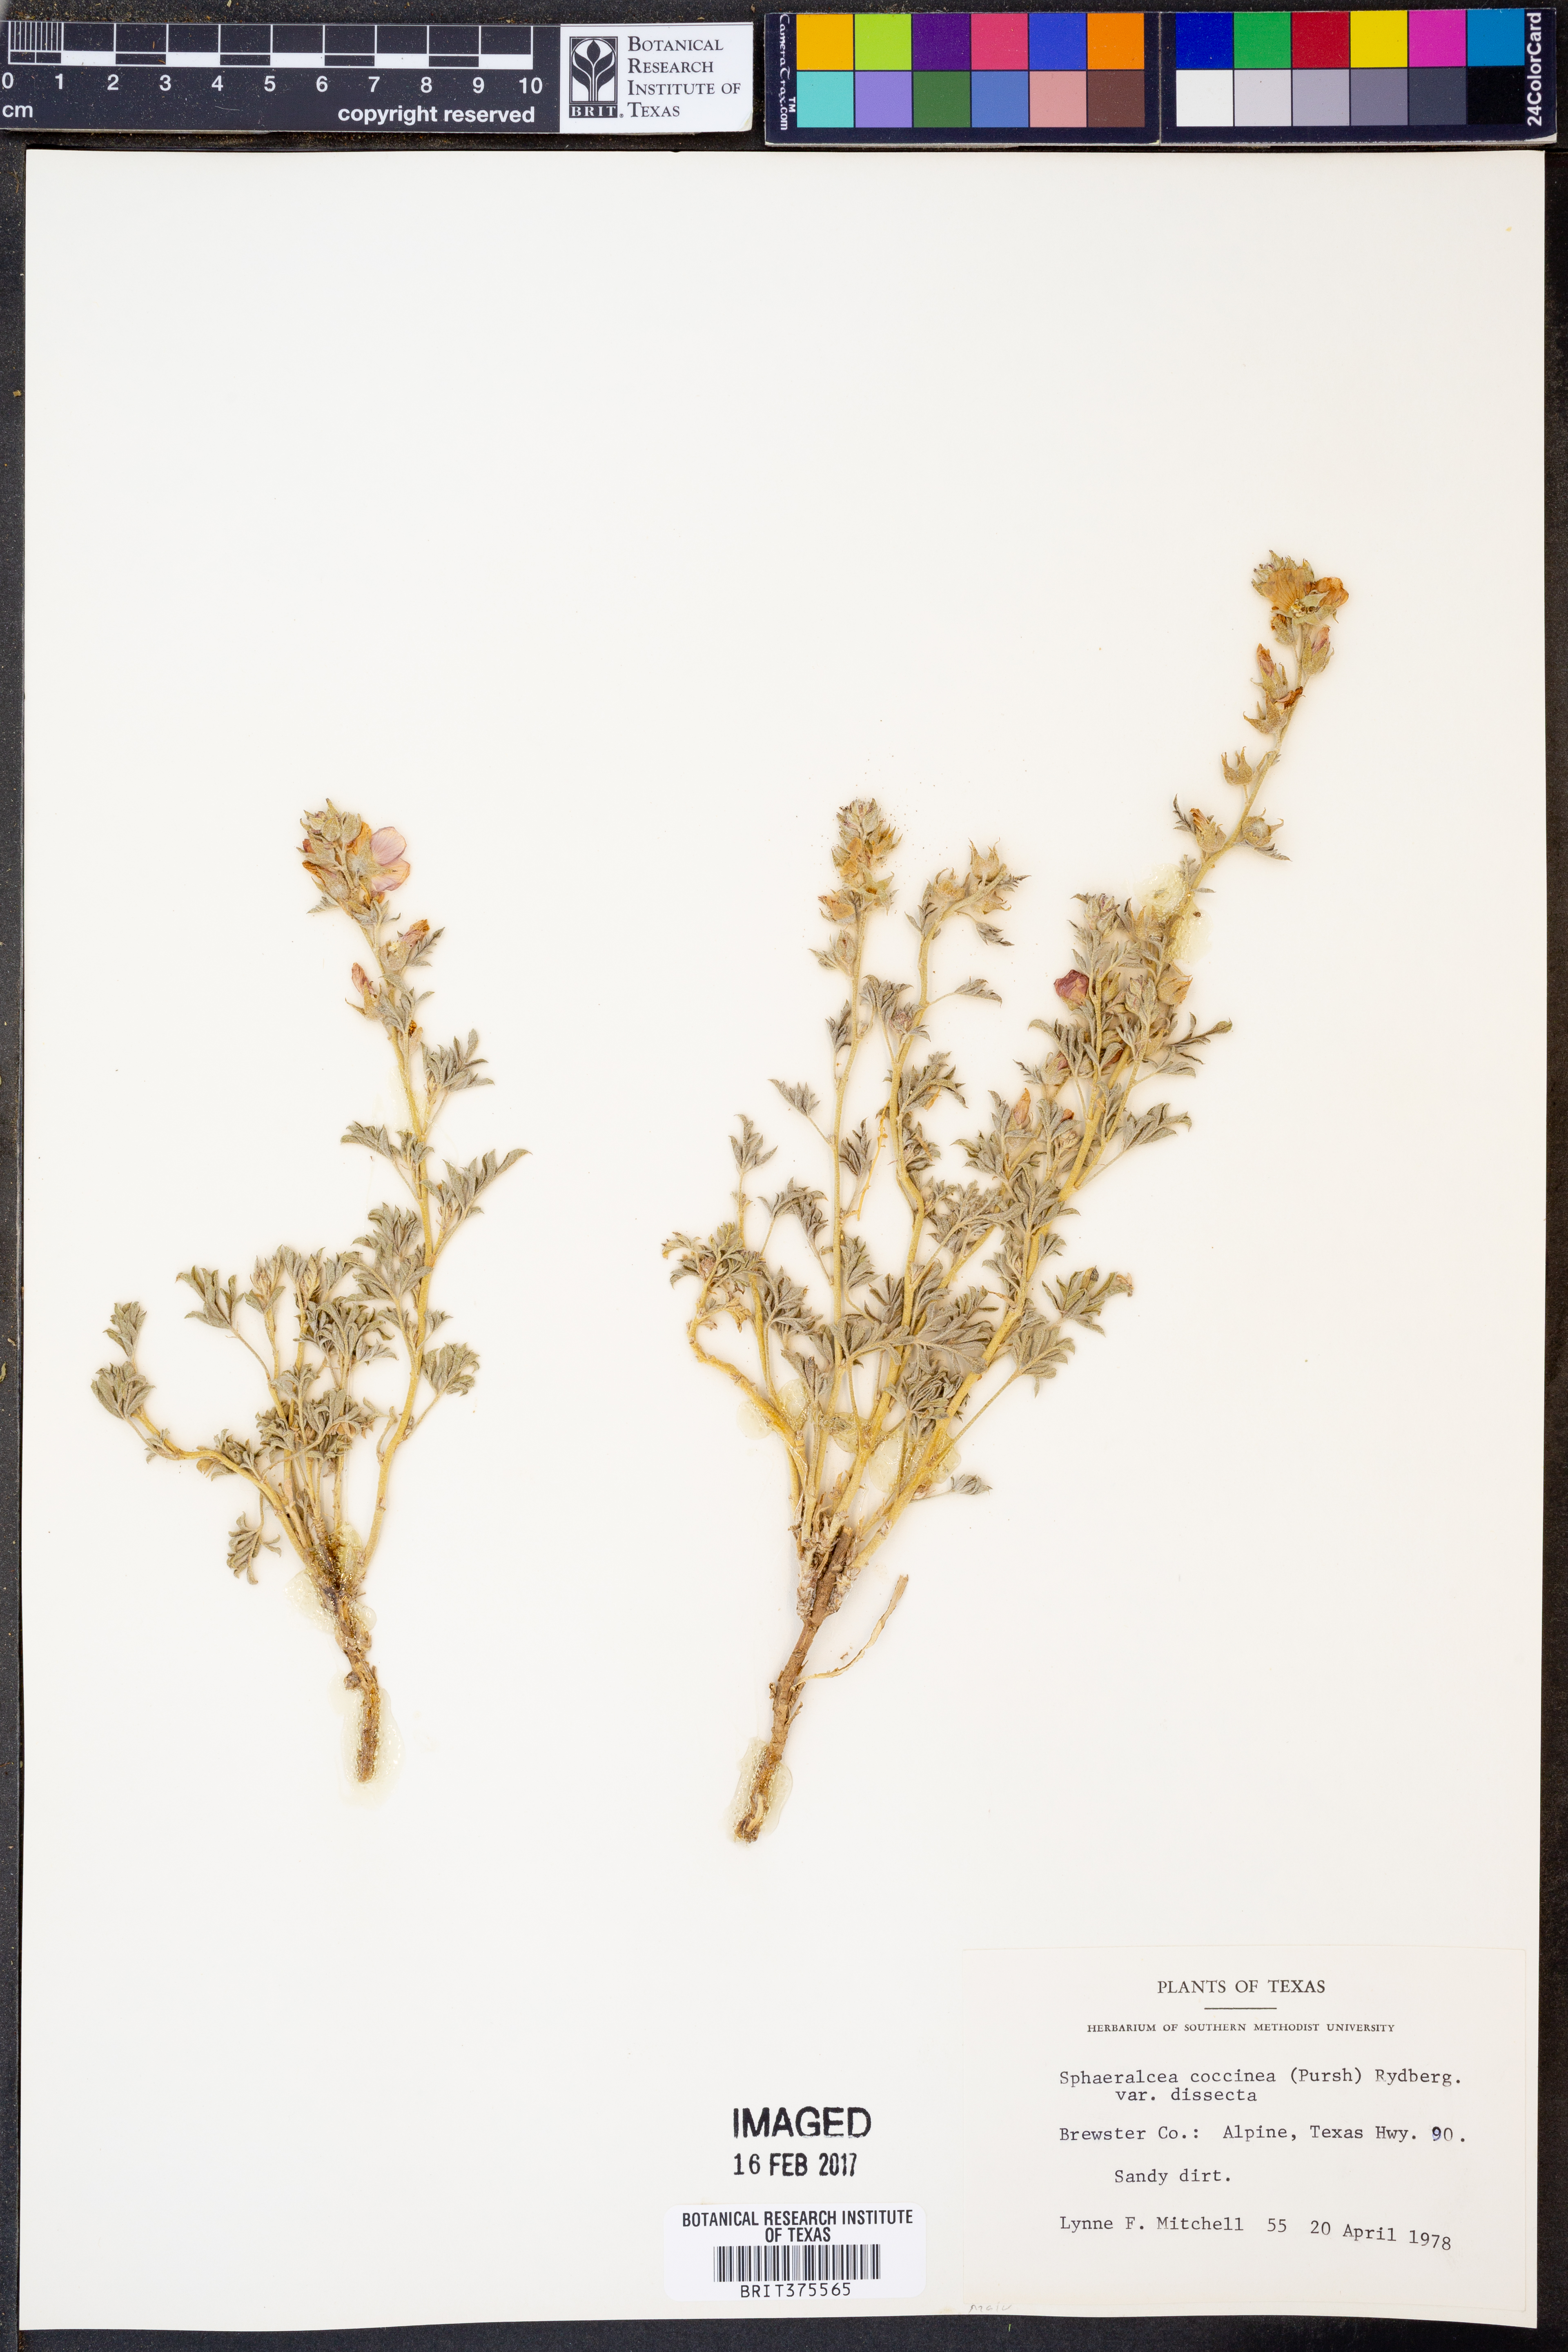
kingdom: Plantae
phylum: Tracheophyta
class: Magnoliopsida
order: Malvales
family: Malvaceae
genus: Sphaeralcea
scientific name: Sphaeralcea coccinea
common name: Moss-rose
